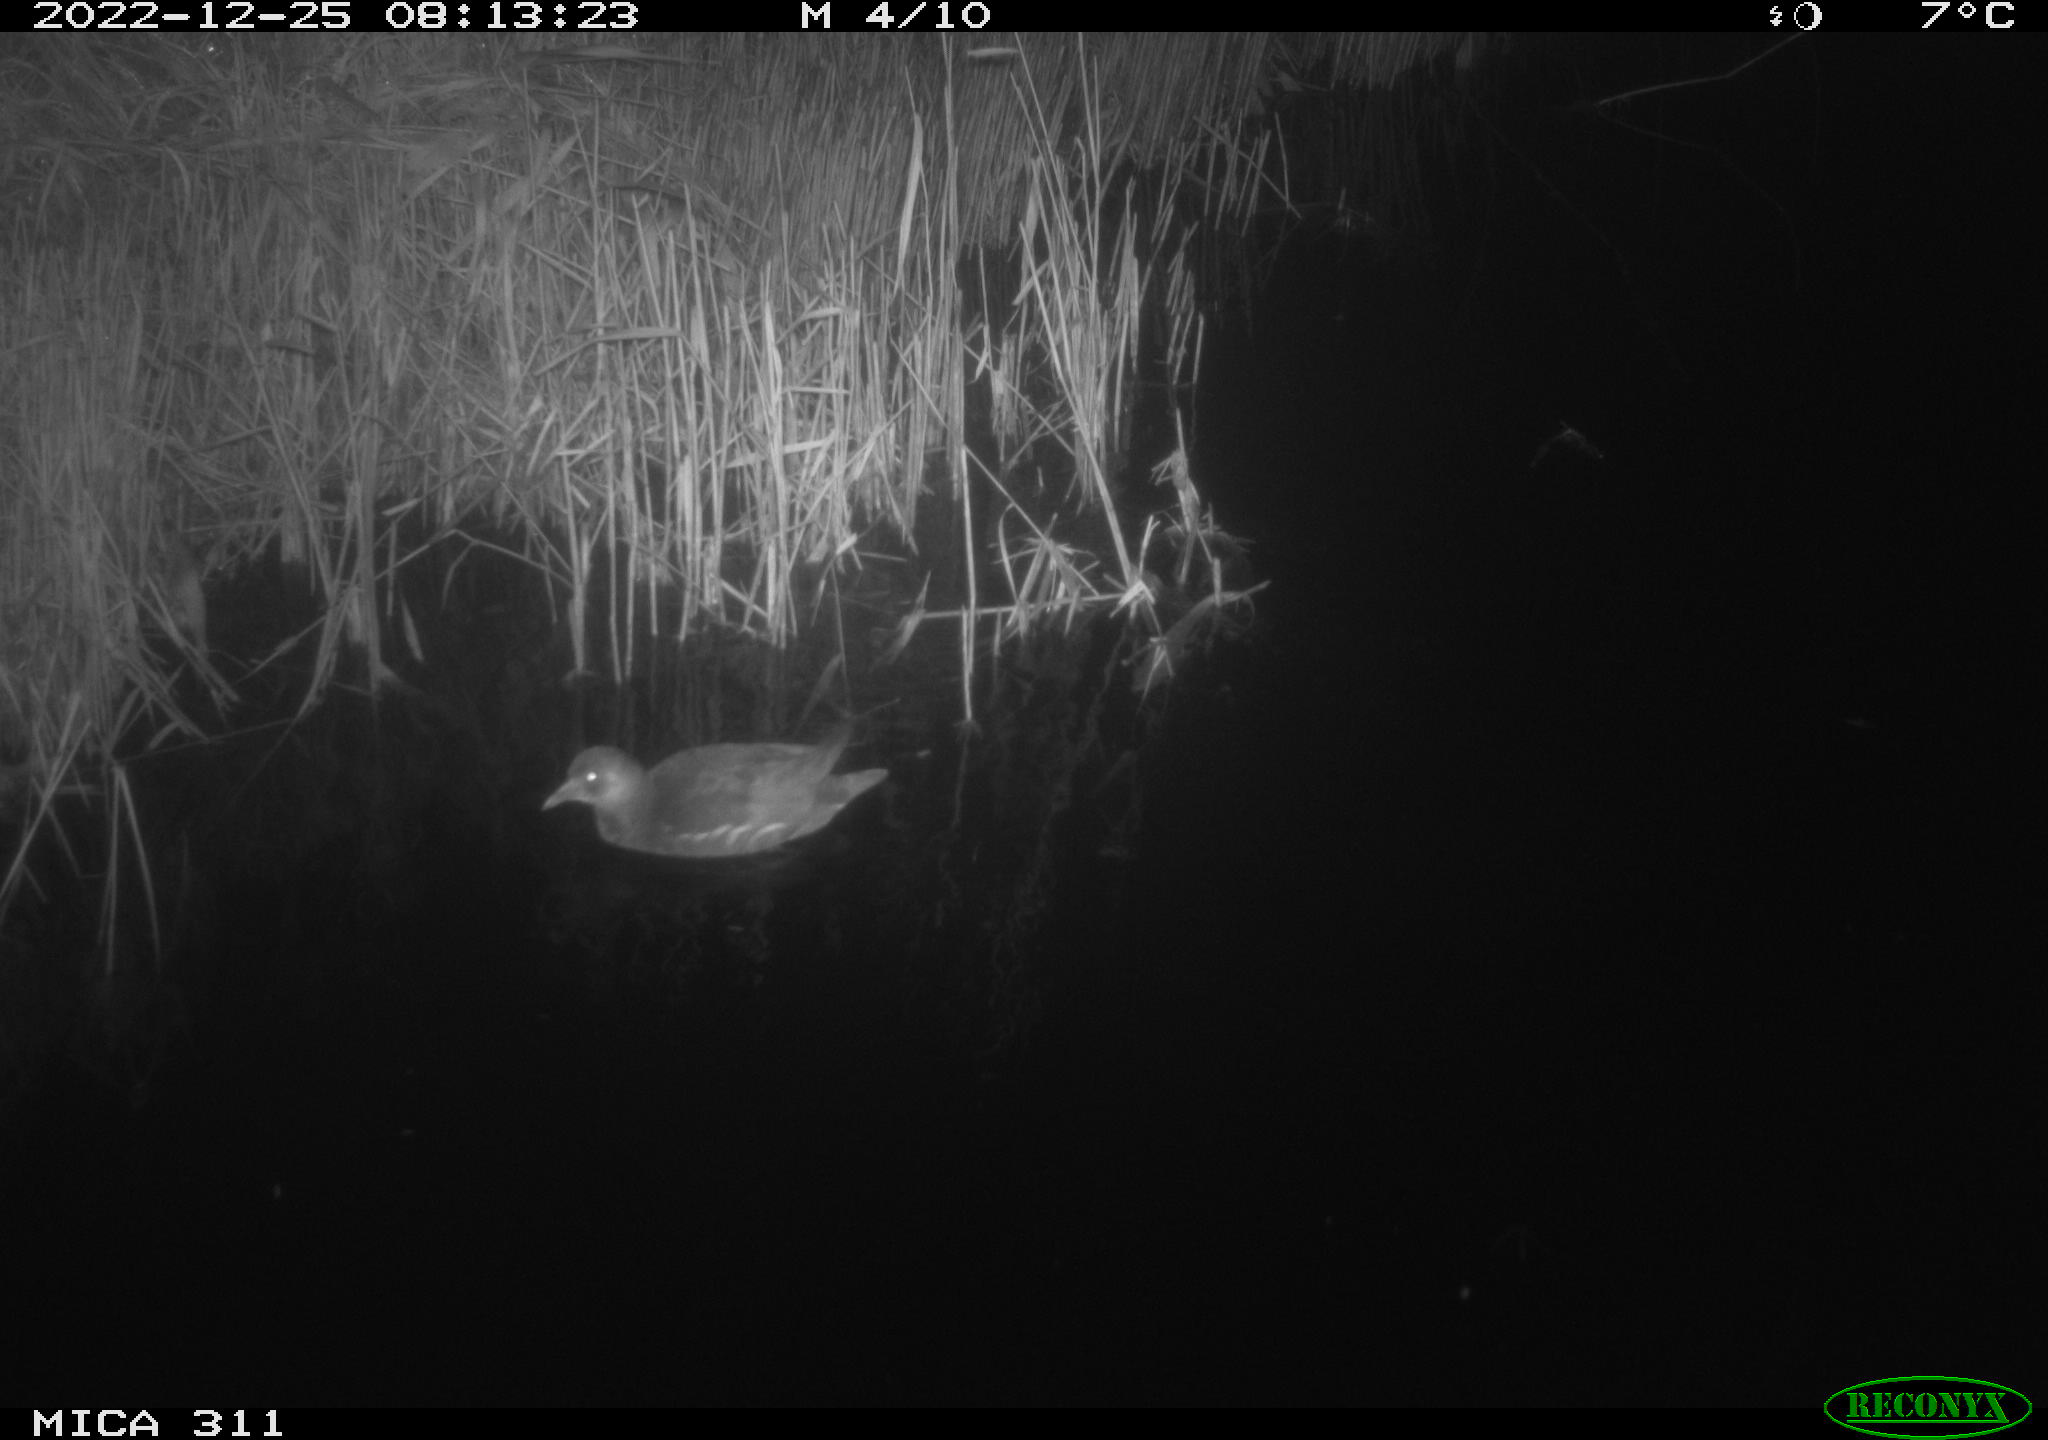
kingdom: Animalia
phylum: Chordata
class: Aves
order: Gruiformes
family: Rallidae
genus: Gallinula
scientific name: Gallinula chloropus
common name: Common moorhen
